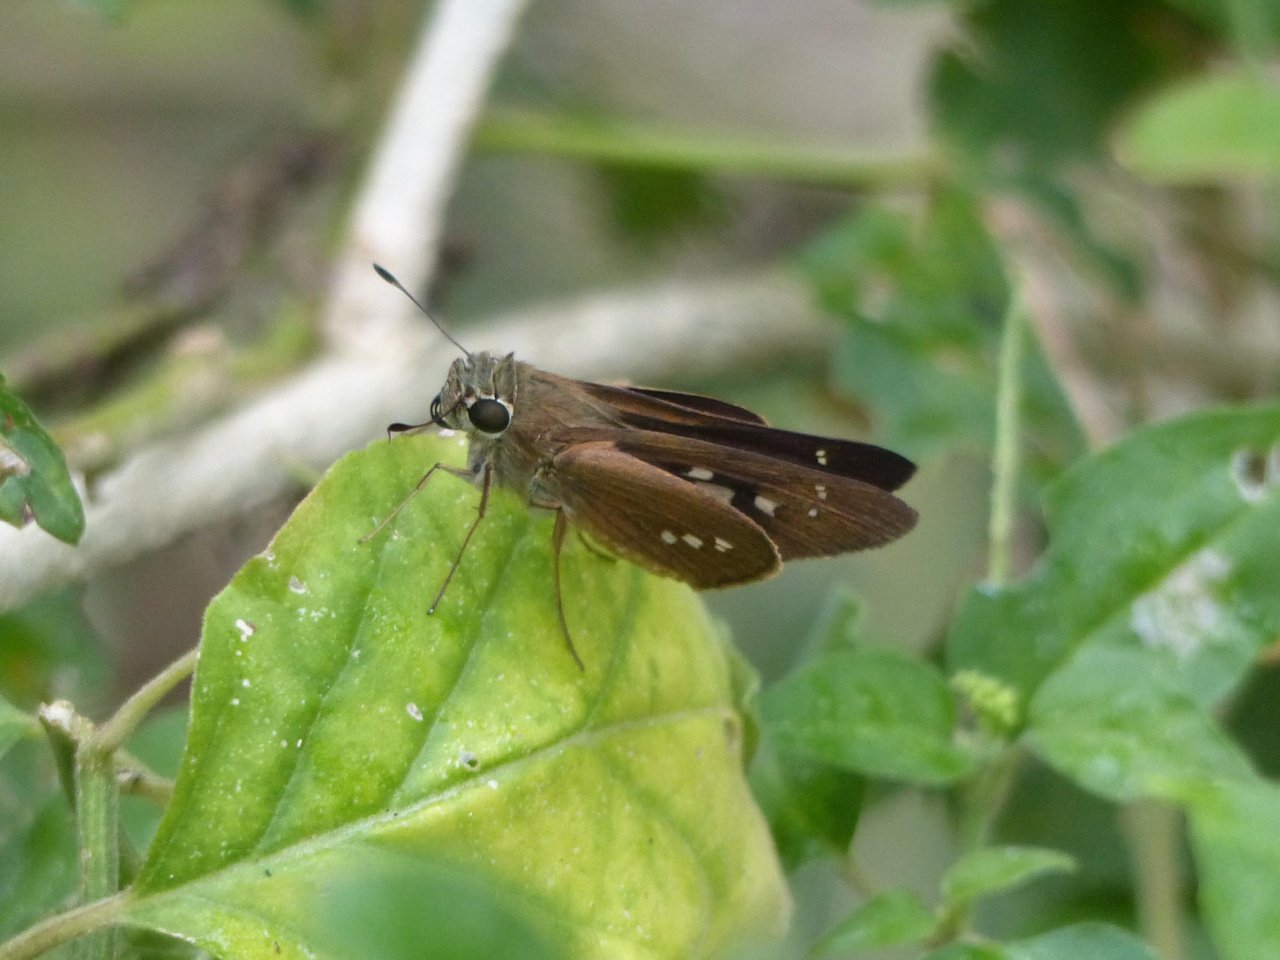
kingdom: Animalia
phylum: Arthropoda
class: Insecta
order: Lepidoptera
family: Hesperiidae
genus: Calpodes
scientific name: Calpodes ethlius
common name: Brazilian Skipper
